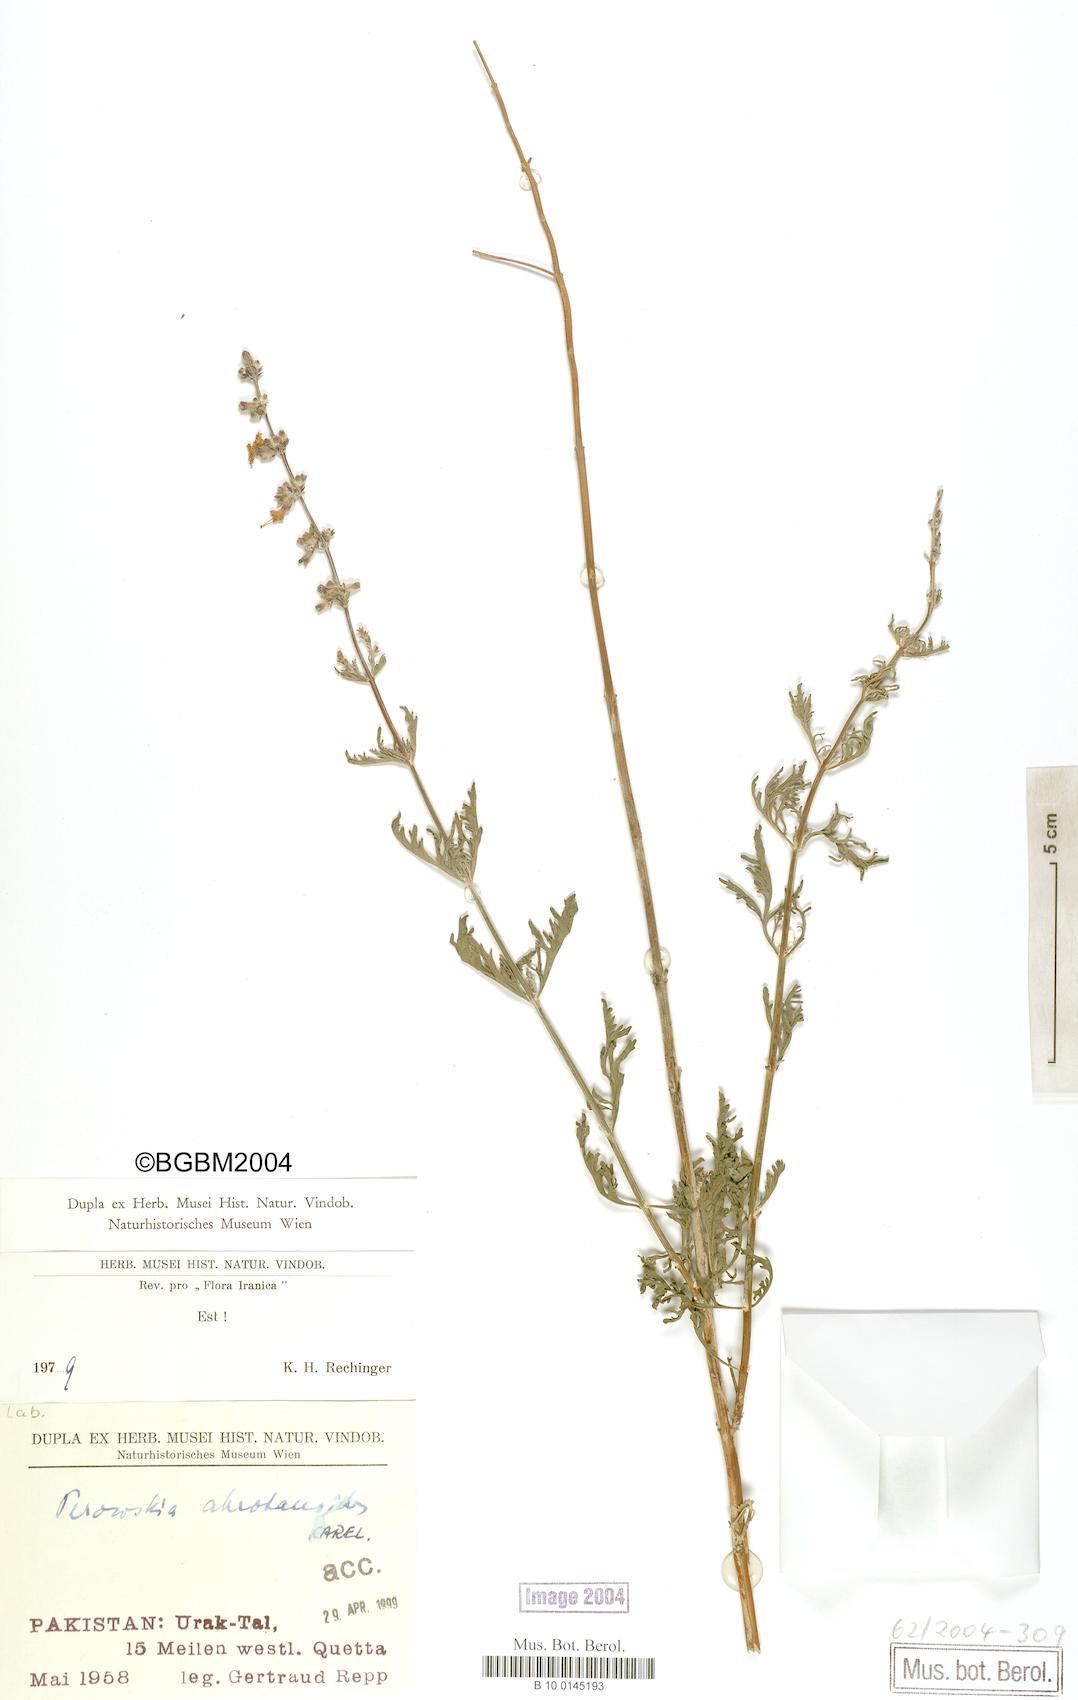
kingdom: Plantae
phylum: Tracheophyta
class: Magnoliopsida
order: Lamiales
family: Lamiaceae
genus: Salvia
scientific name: Salvia abrotanoides
